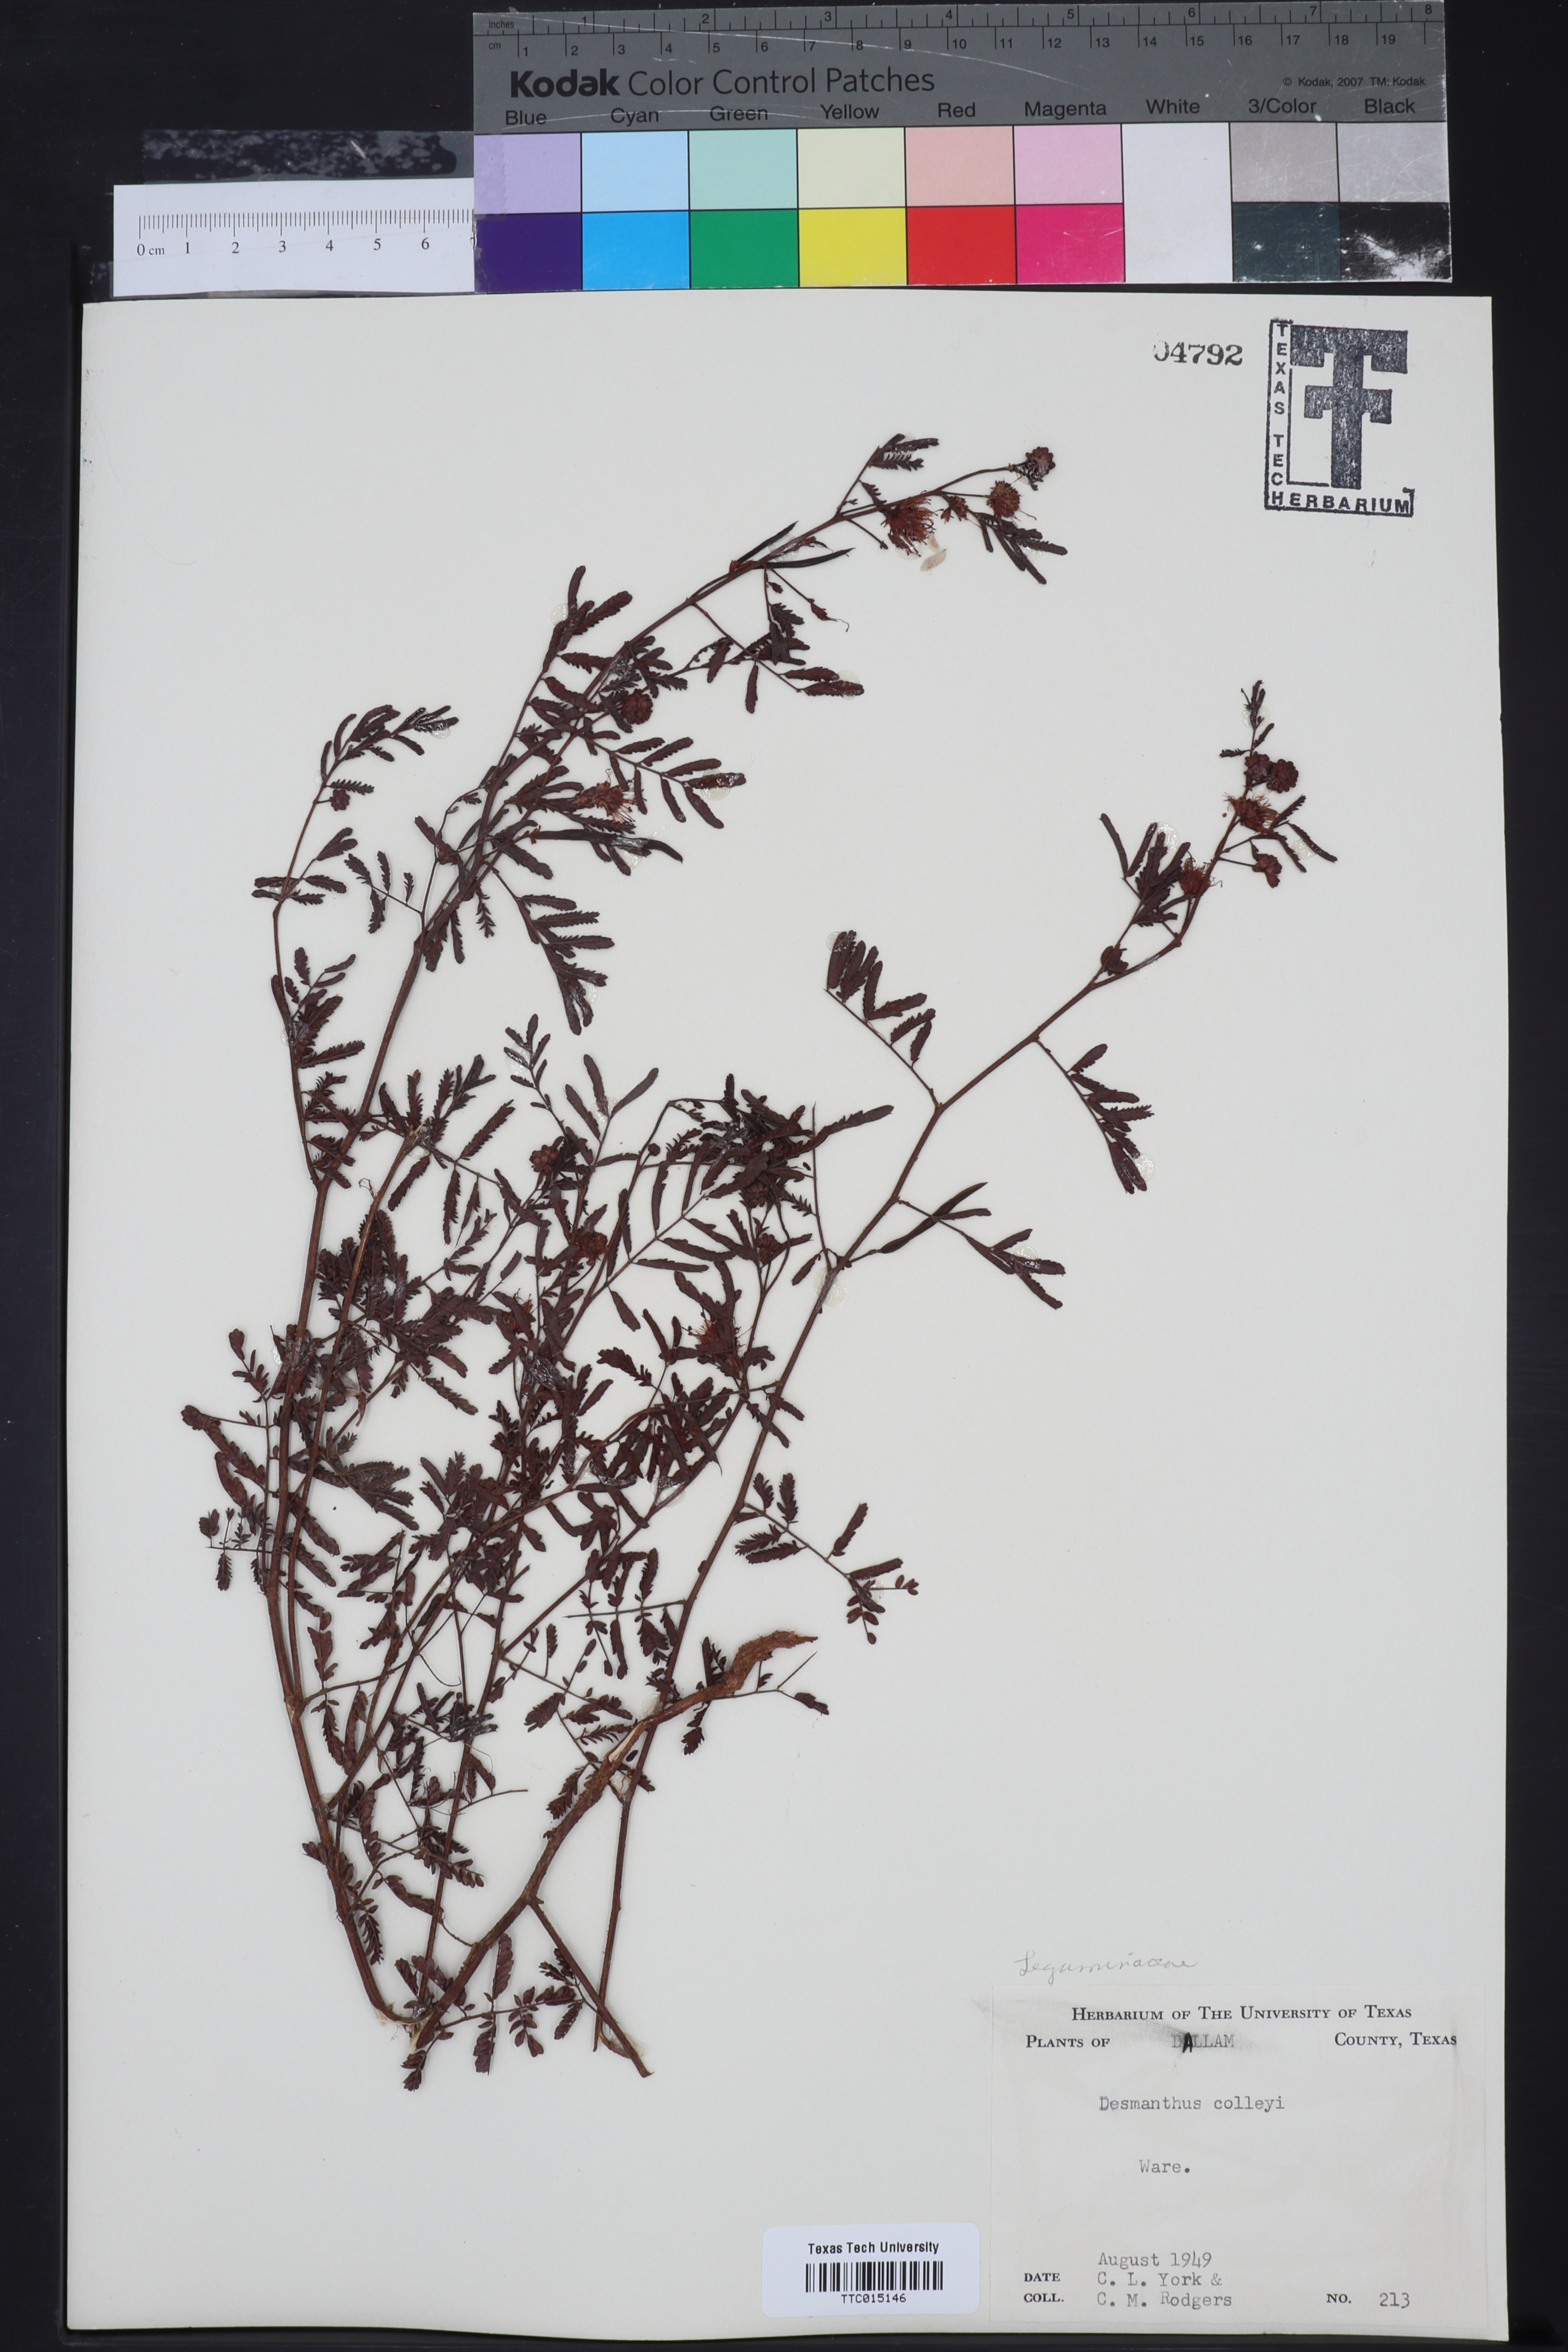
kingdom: Plantae
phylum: Tracheophyta
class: Magnoliopsida
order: Fabales
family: Fabaceae
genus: Desmanthus
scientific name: Desmanthus cooleyi
